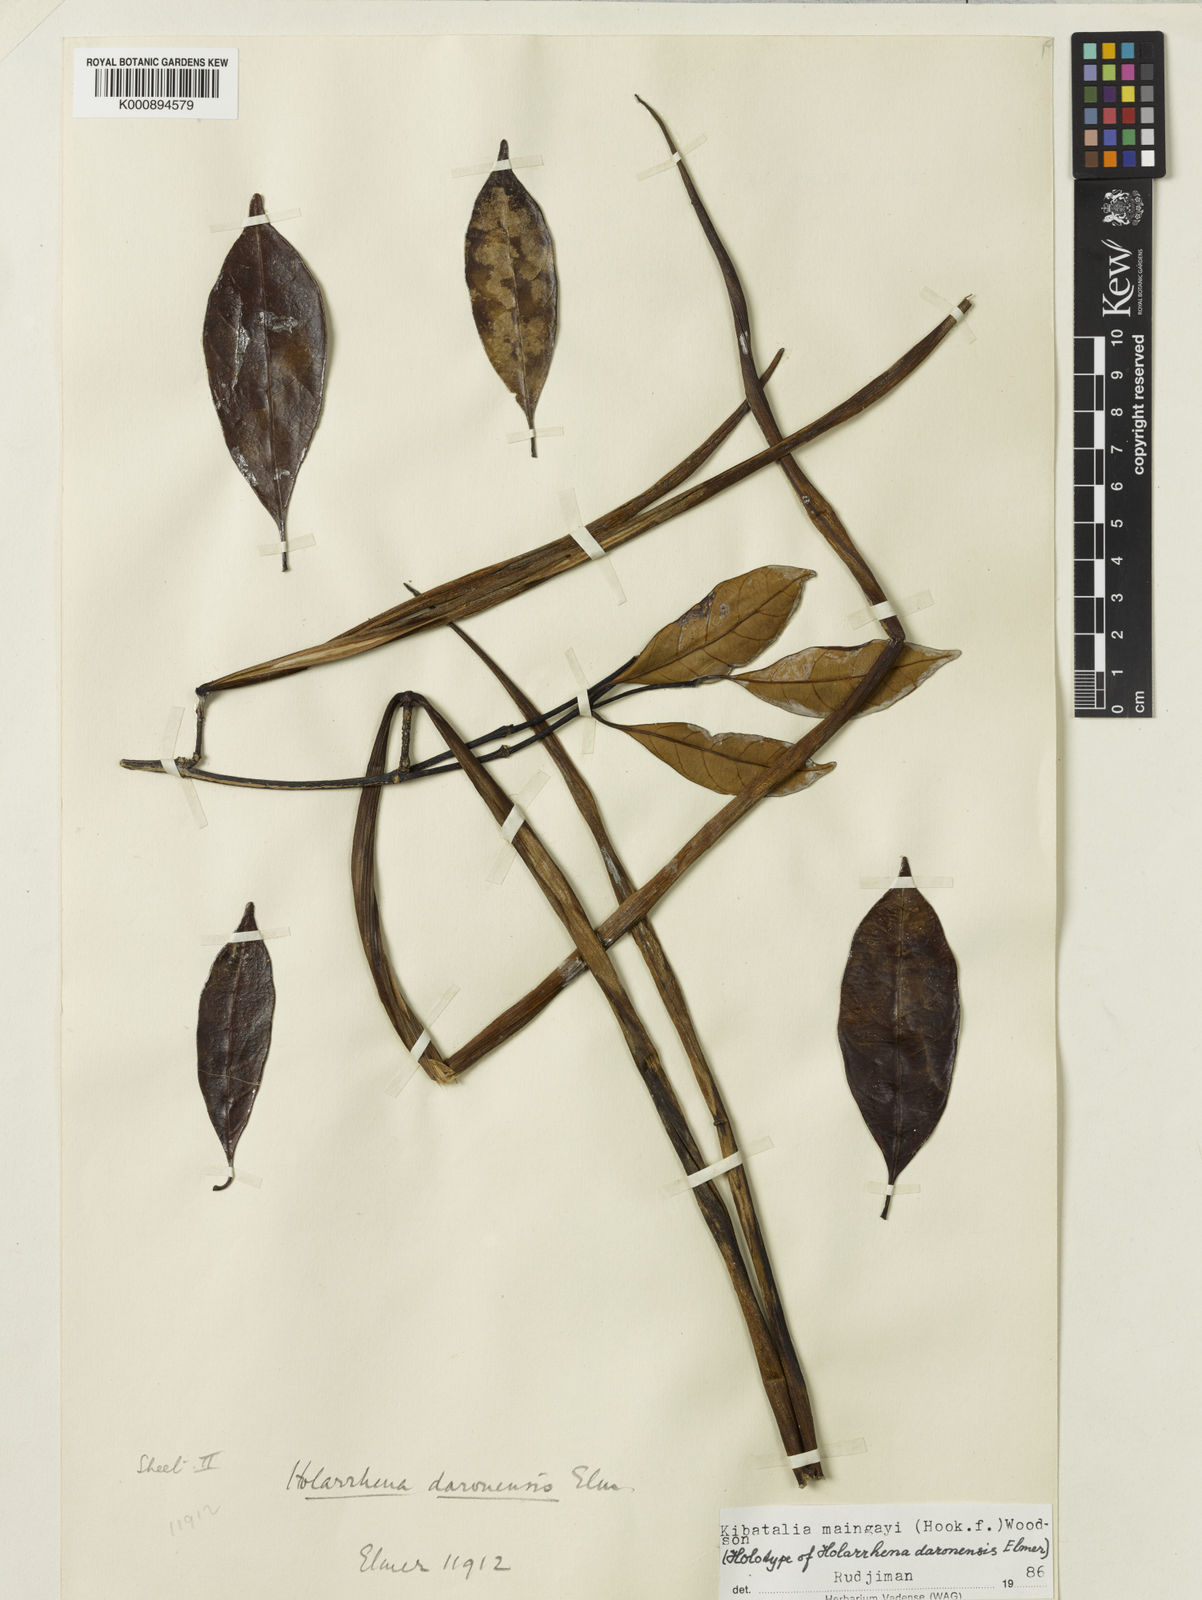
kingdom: Plantae
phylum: Tracheophyta
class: Magnoliopsida
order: Gentianales
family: Apocynaceae
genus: Kibatalia
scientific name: Kibatalia maingayi
